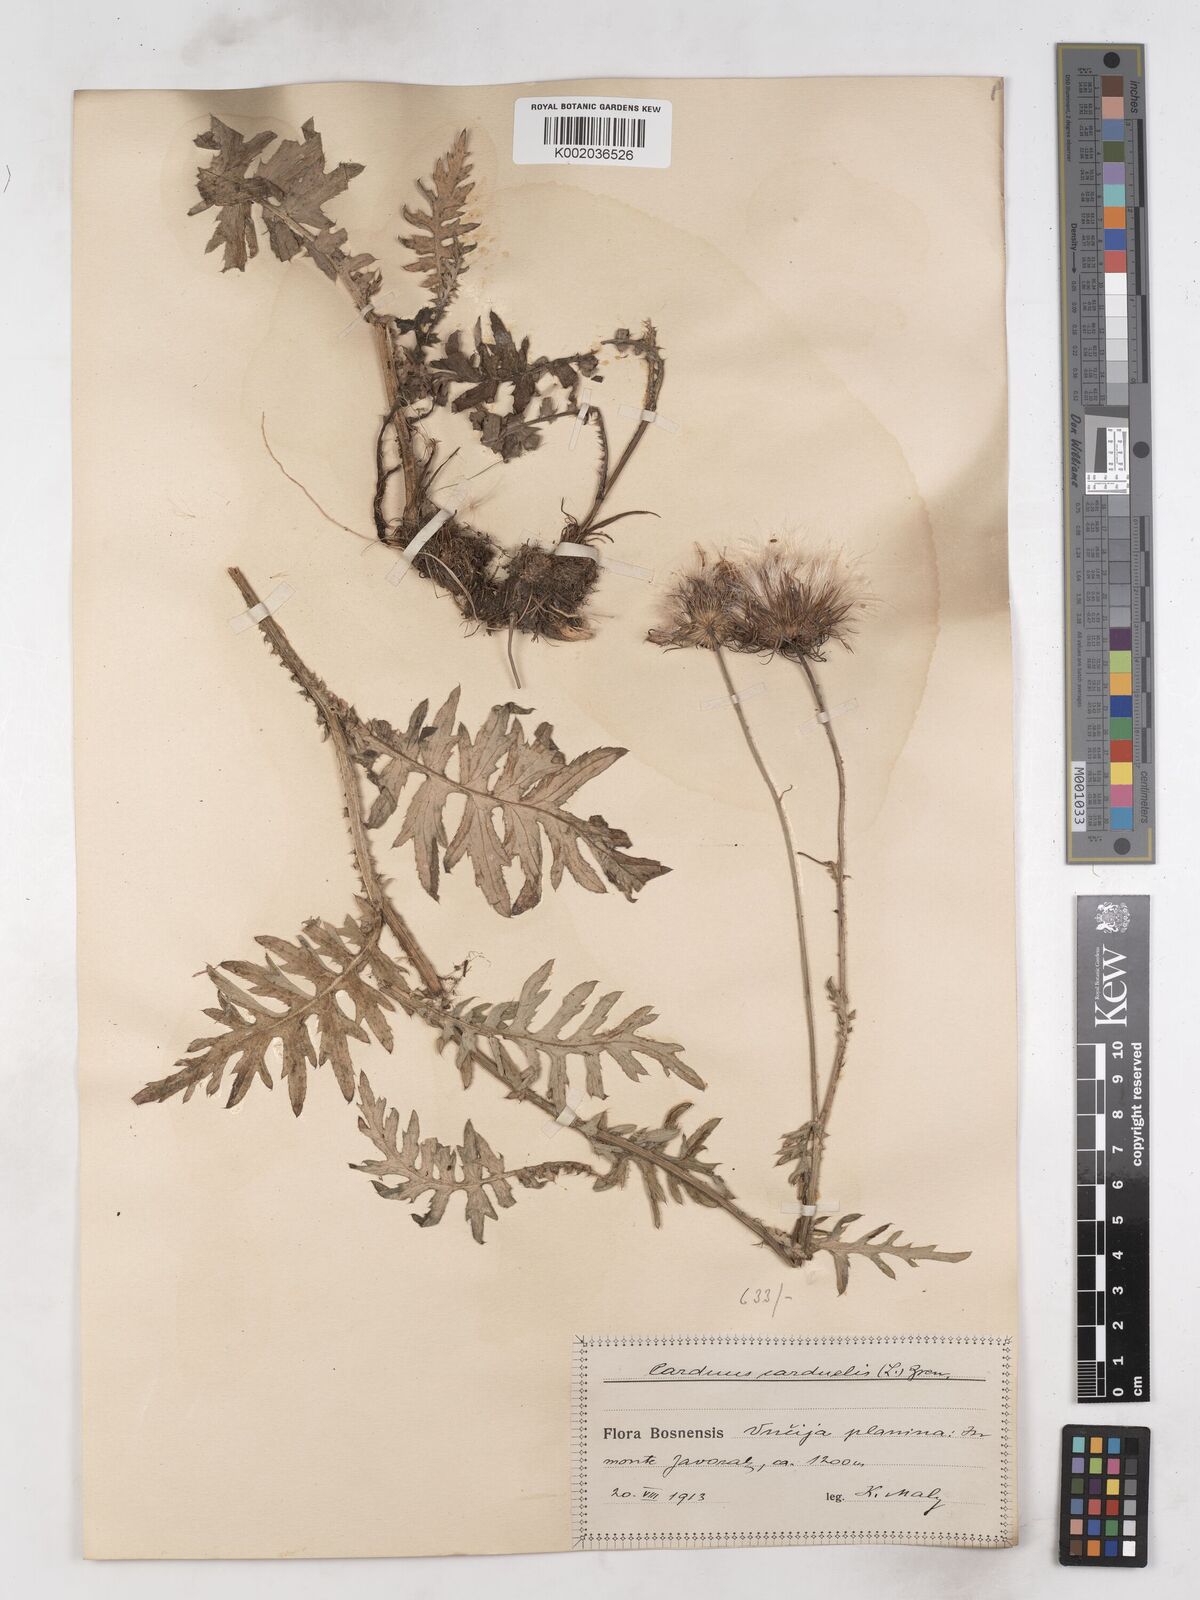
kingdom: Plantae
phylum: Tracheophyta
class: Magnoliopsida
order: Asterales
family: Asteraceae
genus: Carduus
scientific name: Carduus carduelis
